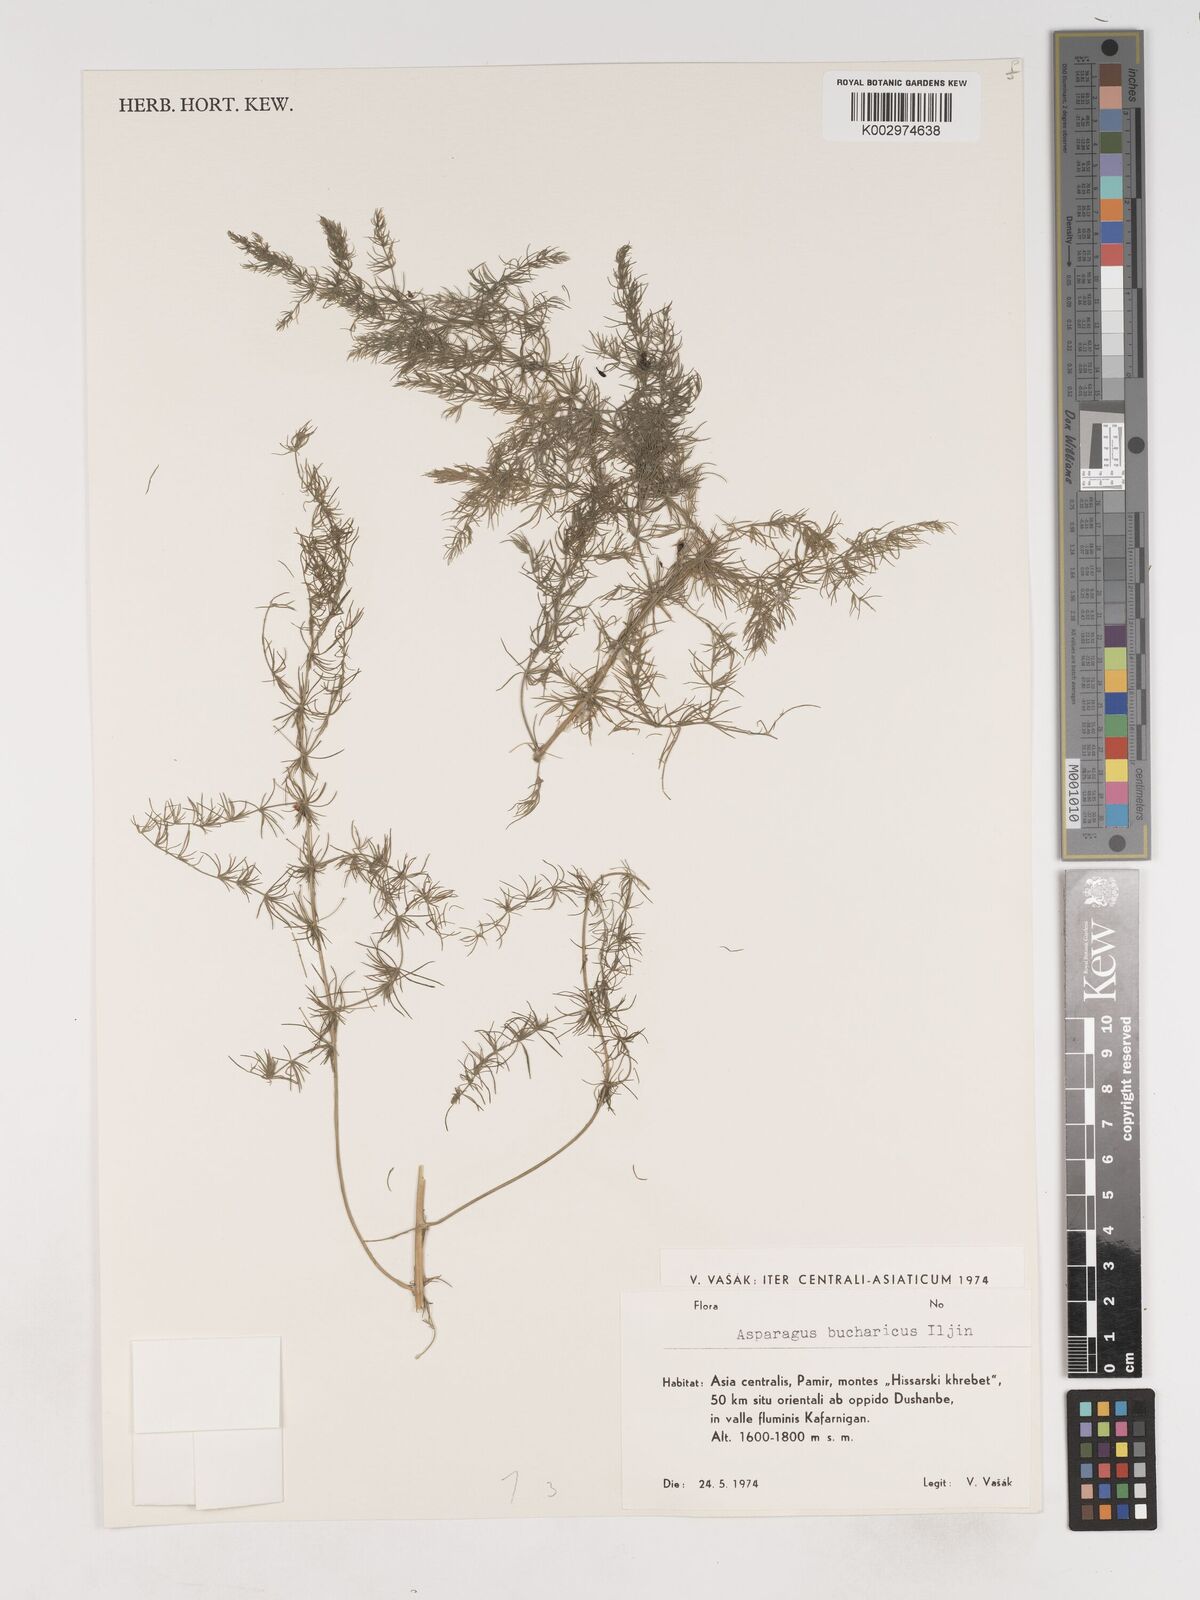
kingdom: Plantae
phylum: Tracheophyta
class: Liliopsida
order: Asparagales
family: Asparagaceae
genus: Asparagus
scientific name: Asparagus bucharicus
